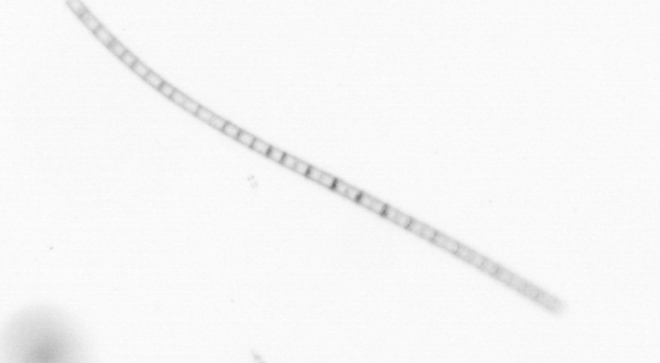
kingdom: Chromista
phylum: Ochrophyta
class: Bacillariophyceae
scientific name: Bacillariophyceae
